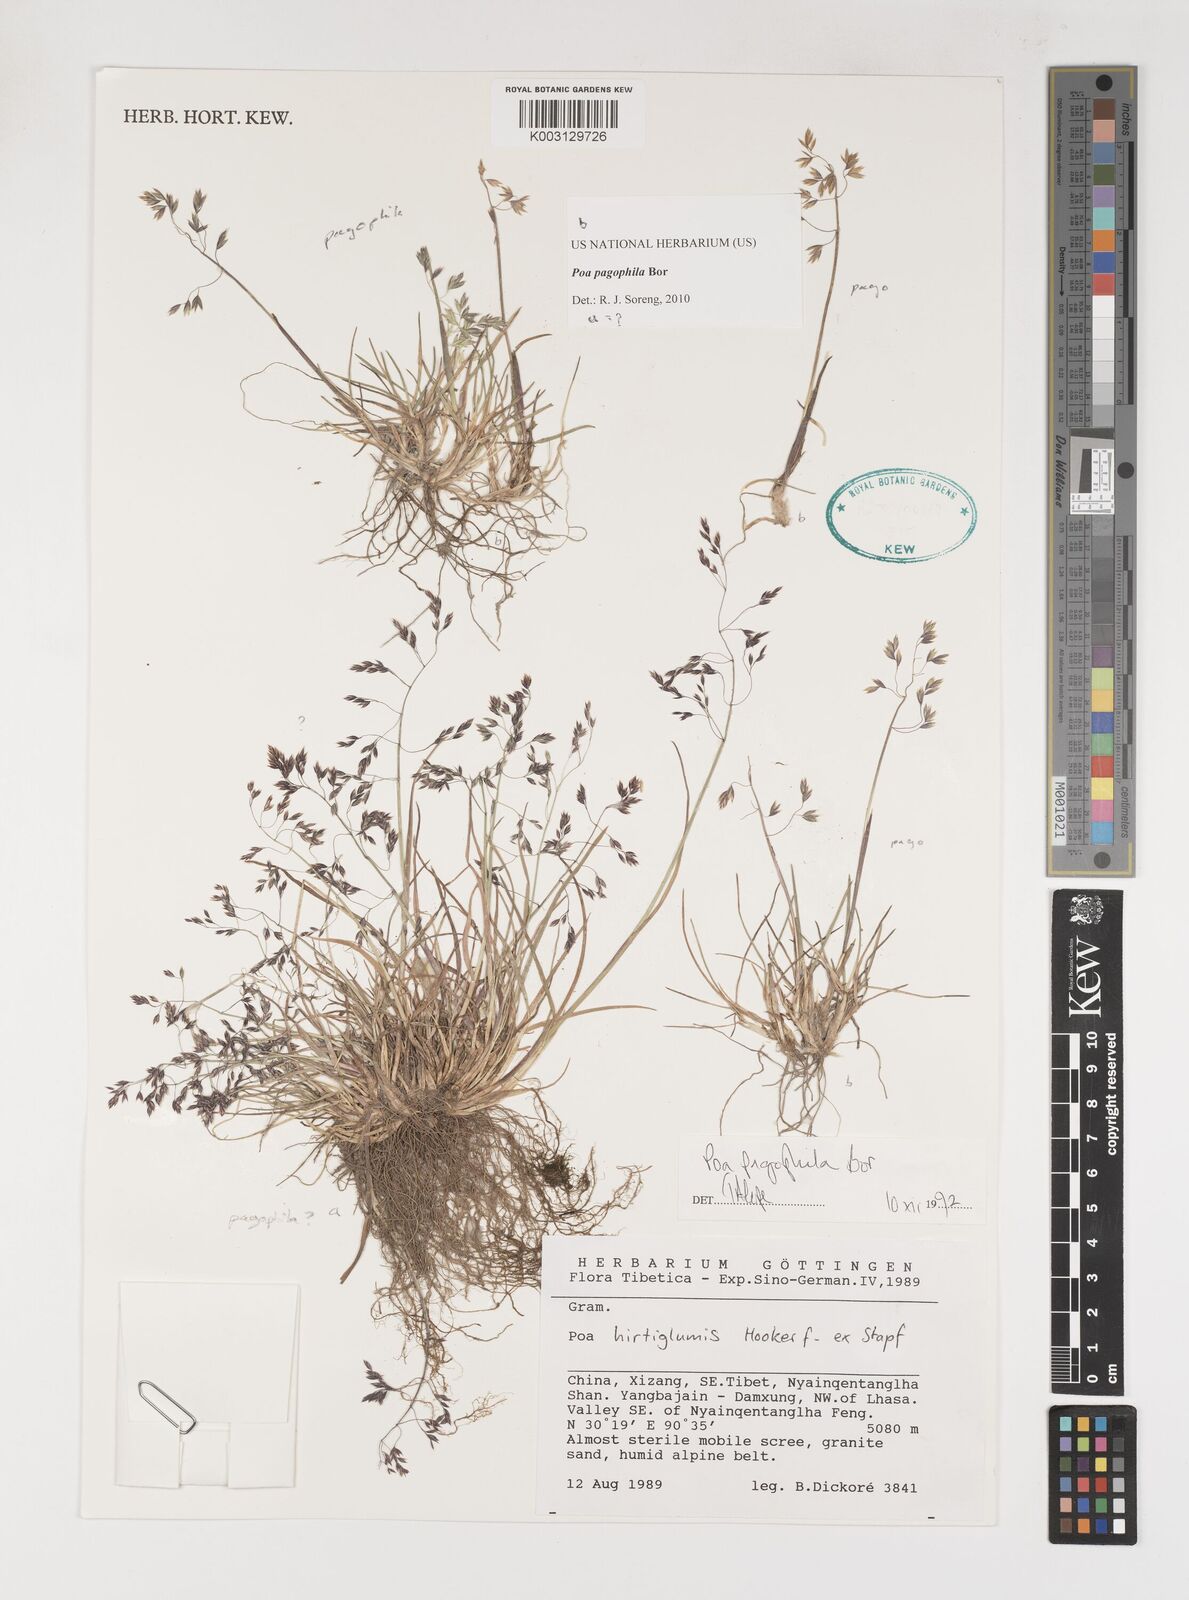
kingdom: Plantae
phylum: Tracheophyta
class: Liliopsida
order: Poales
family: Poaceae
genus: Poa
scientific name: Poa pagophila
